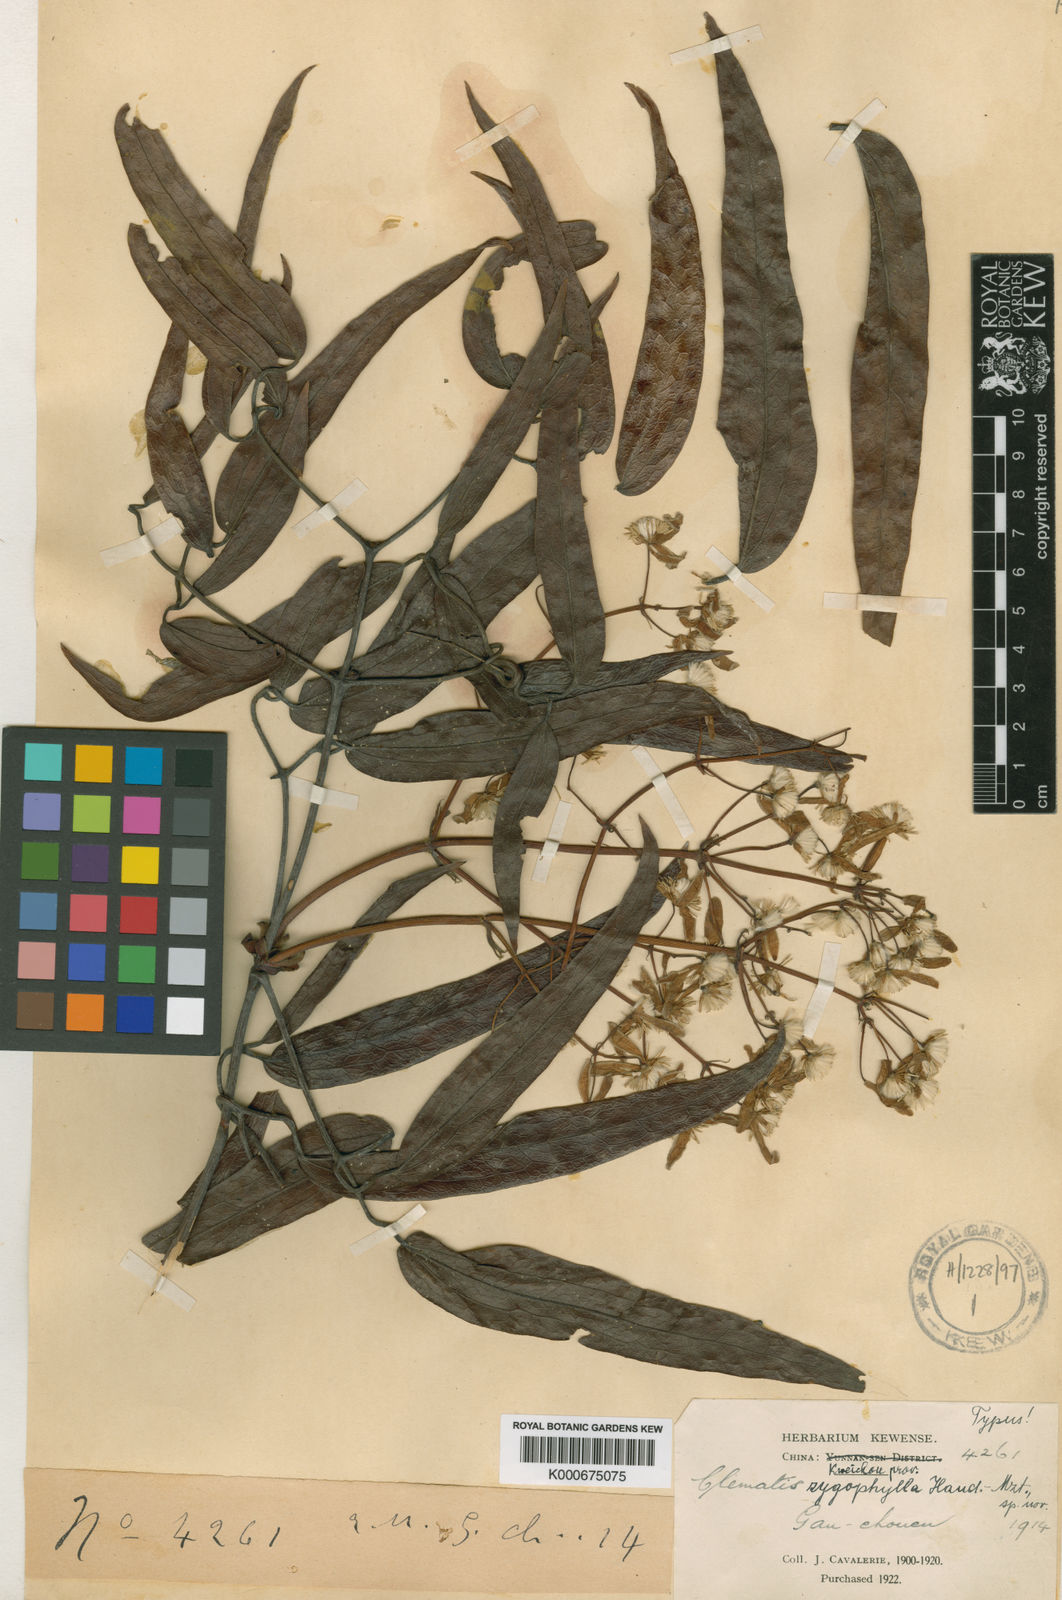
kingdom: Plantae
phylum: Tracheophyta
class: Magnoliopsida
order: Ranunculales
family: Ranunculaceae
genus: Clematis
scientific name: Clematis zygophylla
